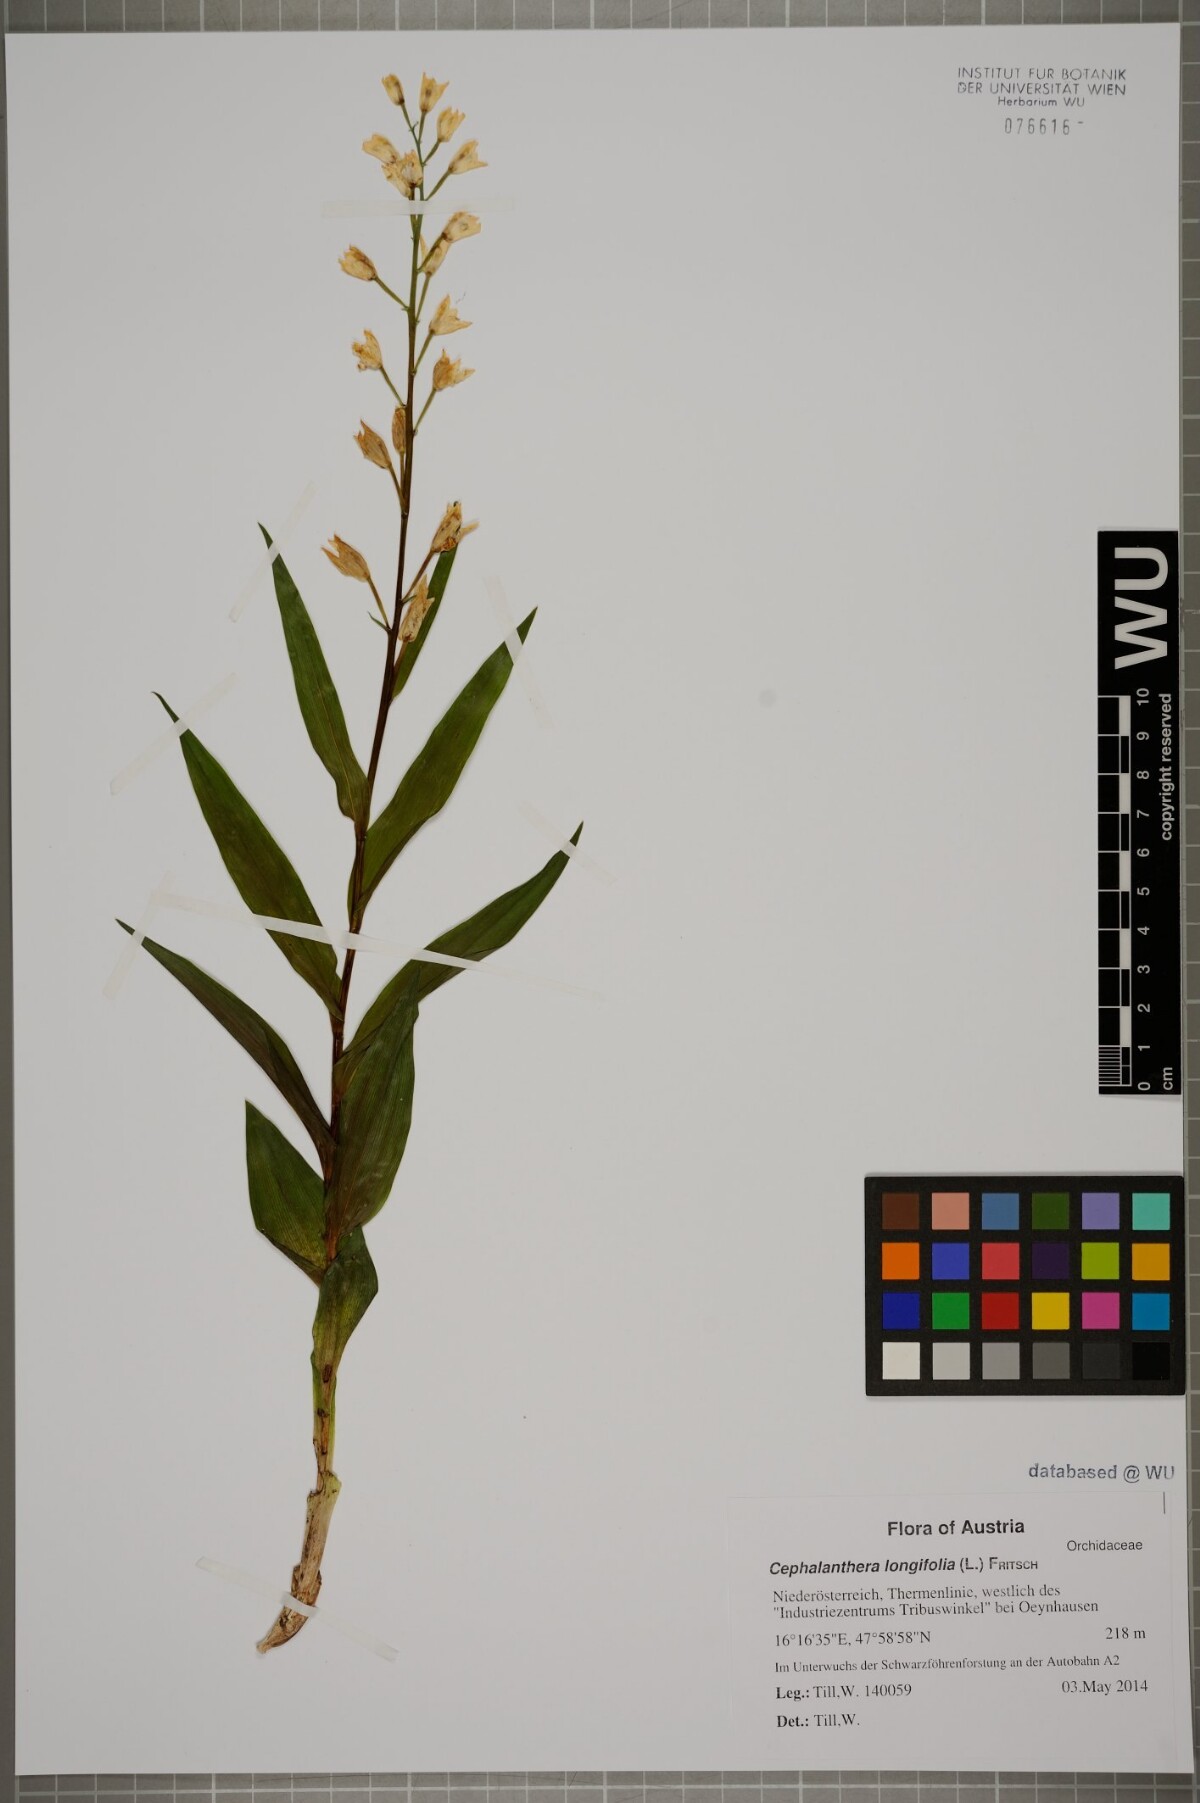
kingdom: Plantae
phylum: Tracheophyta
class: Liliopsida
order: Asparagales
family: Orchidaceae
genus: Cephalanthera
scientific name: Cephalanthera longifolia
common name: Narrow-leaved helleborine
